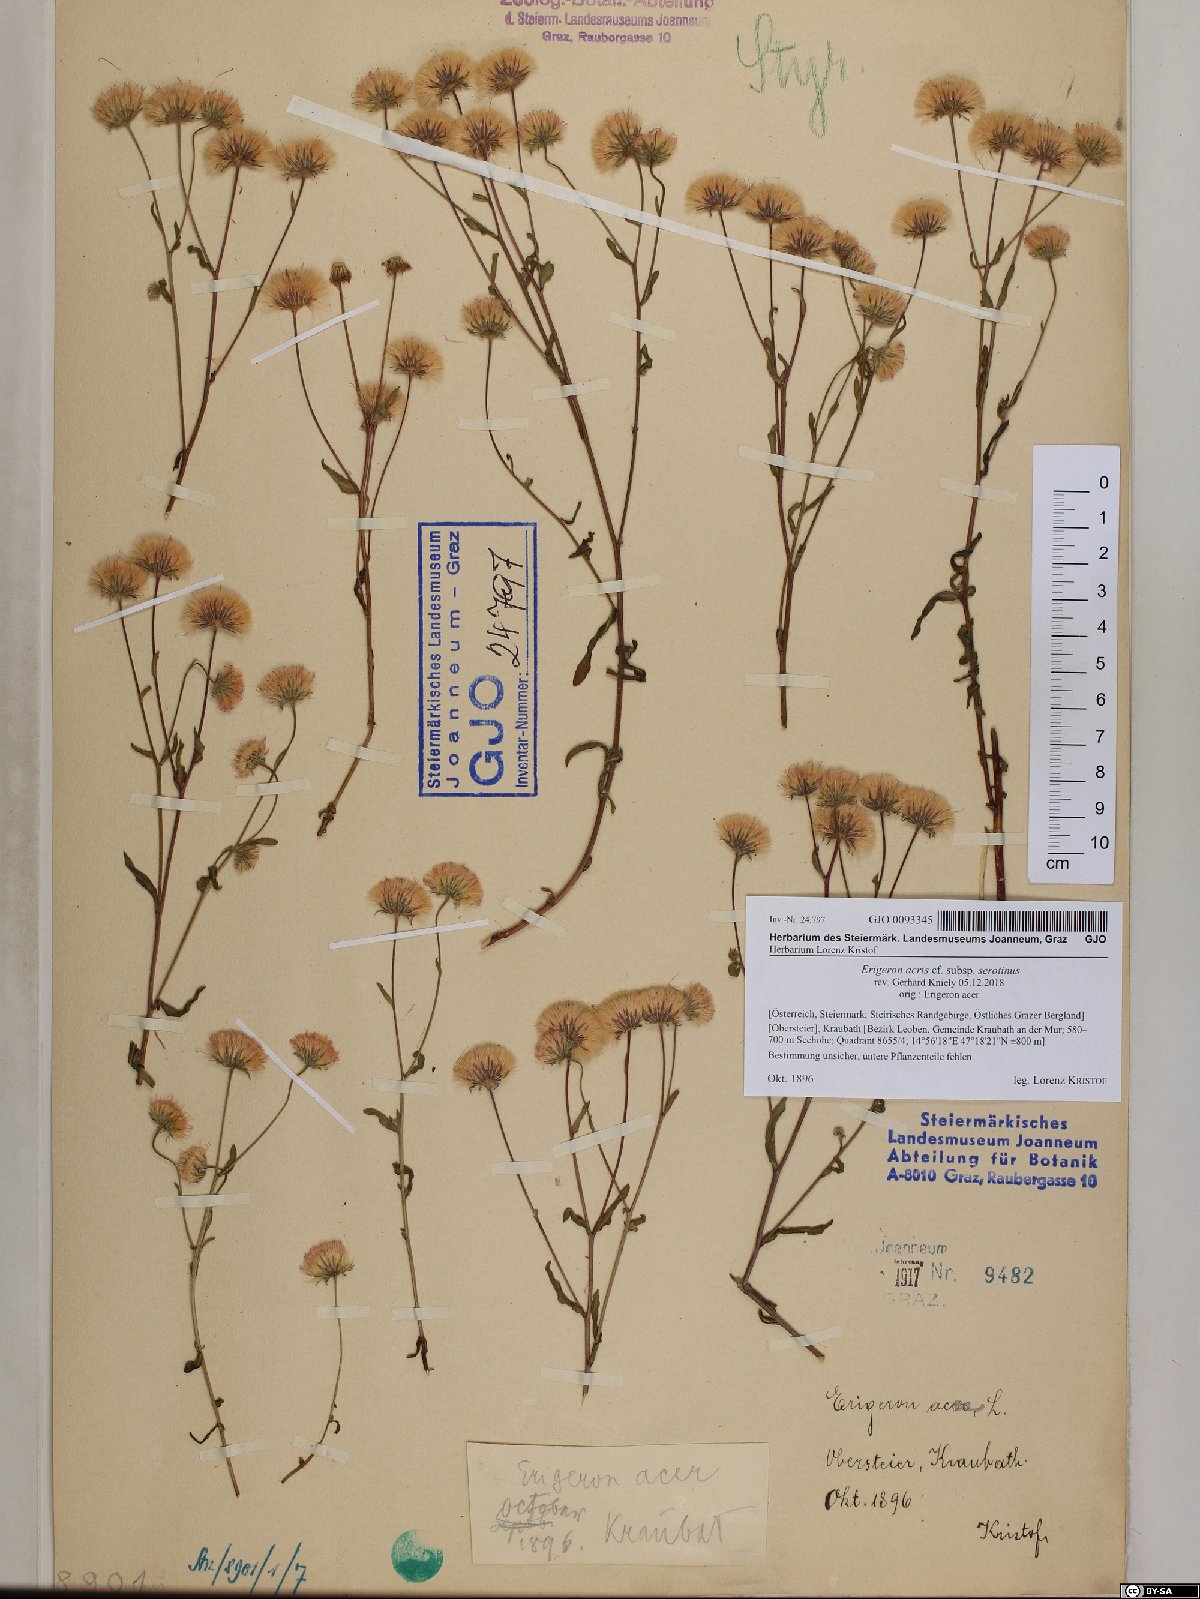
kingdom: Plantae
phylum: Tracheophyta
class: Magnoliopsida
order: Asterales
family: Asteraceae
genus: Erigeron
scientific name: Erigeron muralis
